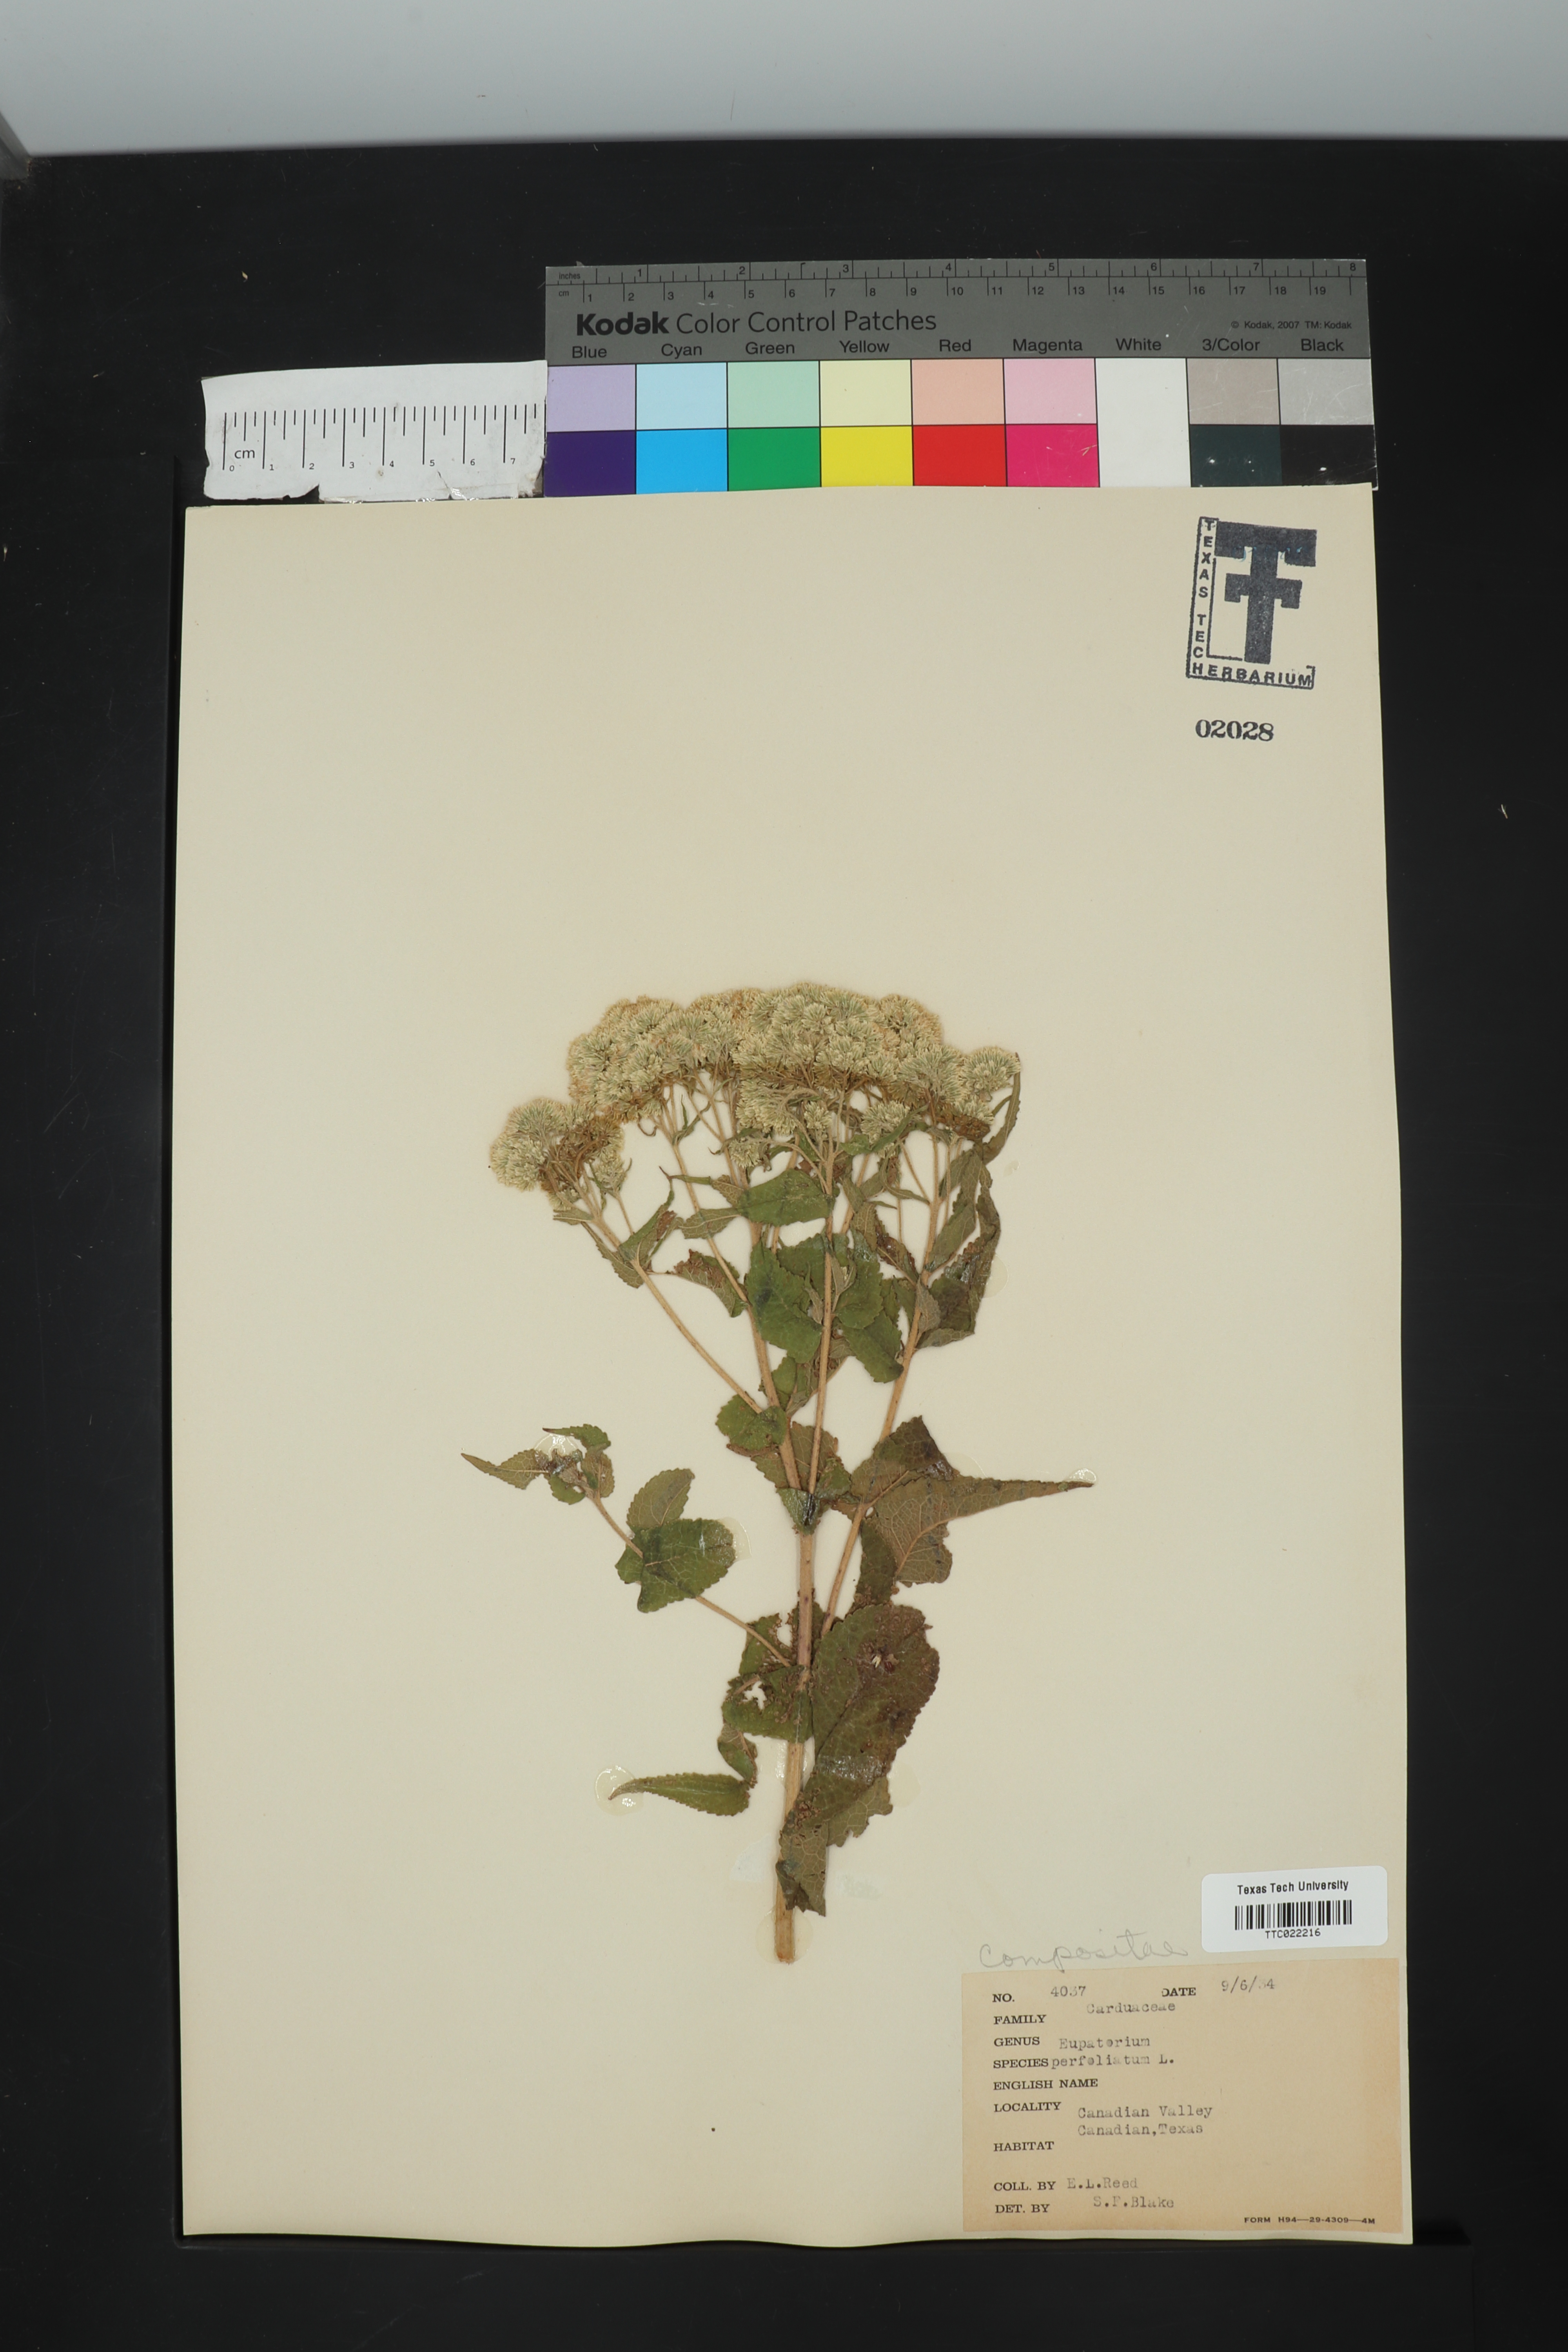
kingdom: Plantae
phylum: Tracheophyta
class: Magnoliopsida
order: Asterales
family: Asteraceae
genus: Eupatorium
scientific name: Eupatorium perfoliatum
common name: Boneset
